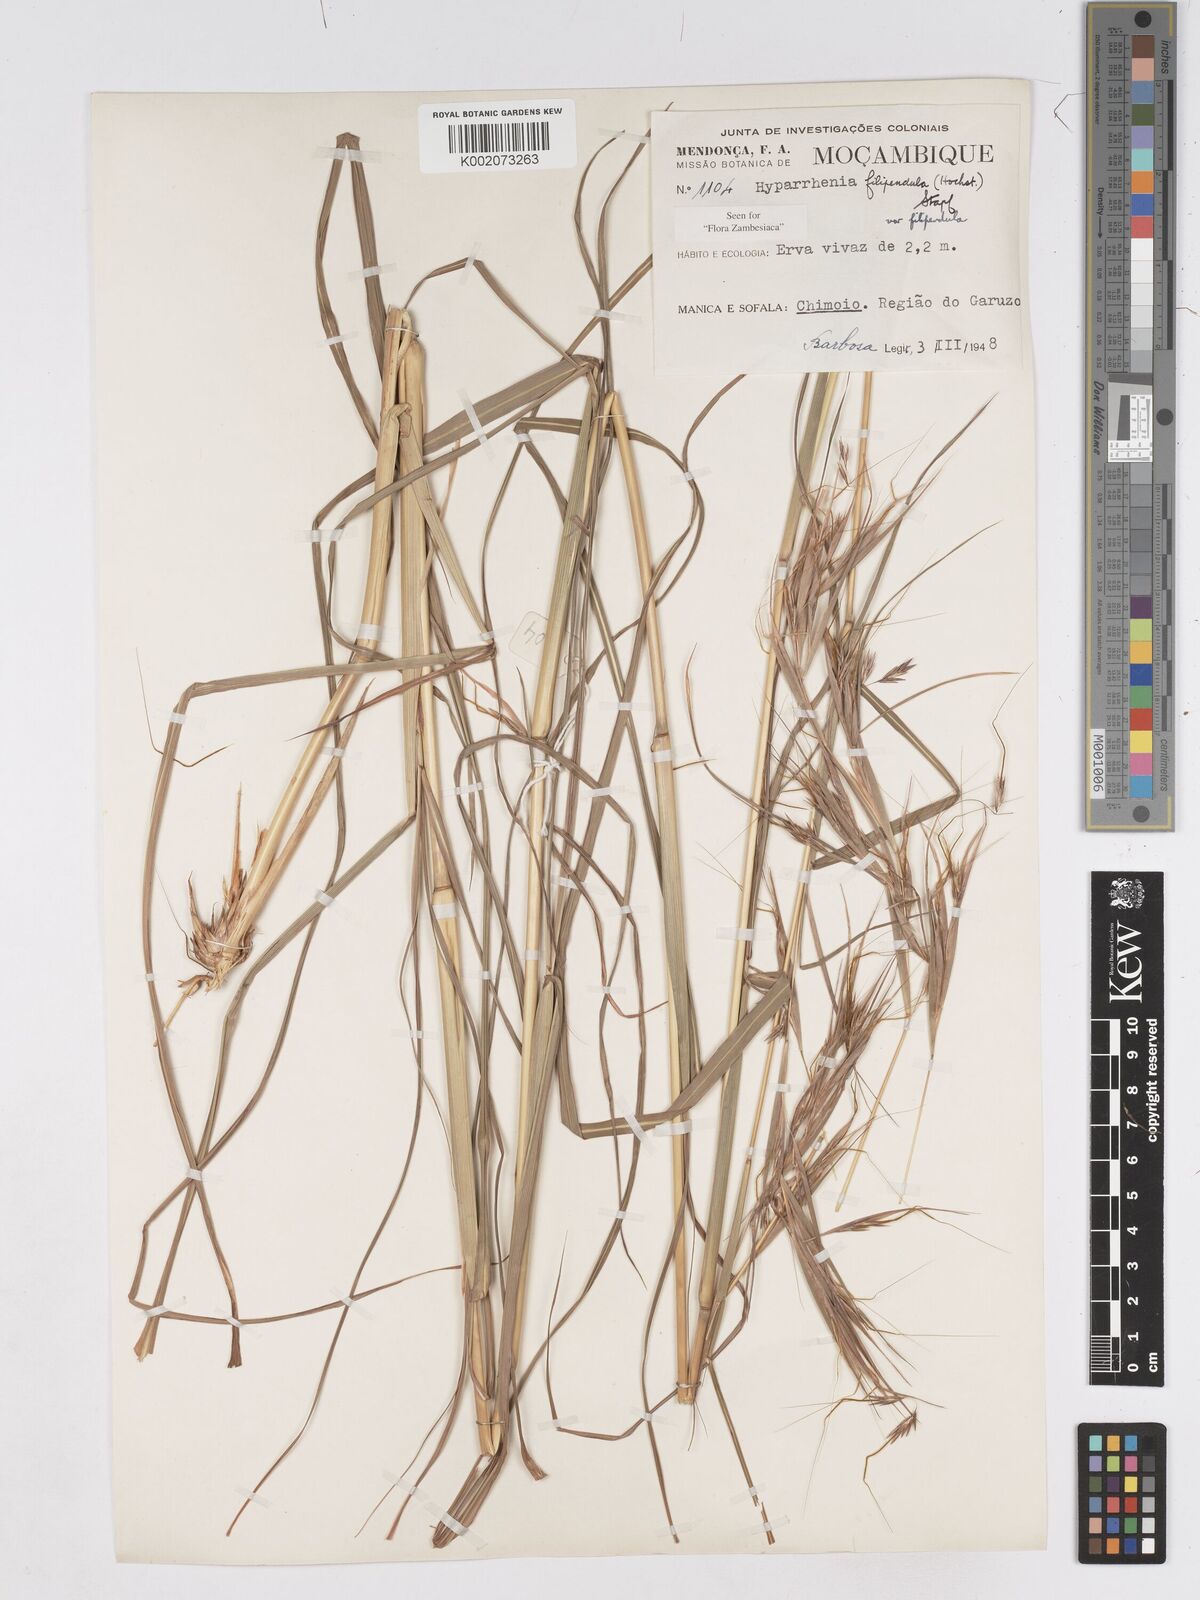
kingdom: Plantae
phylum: Tracheophyta
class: Liliopsida
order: Poales
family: Poaceae
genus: Hyparrhenia
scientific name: Hyparrhenia filipendula
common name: Tambookie grass
